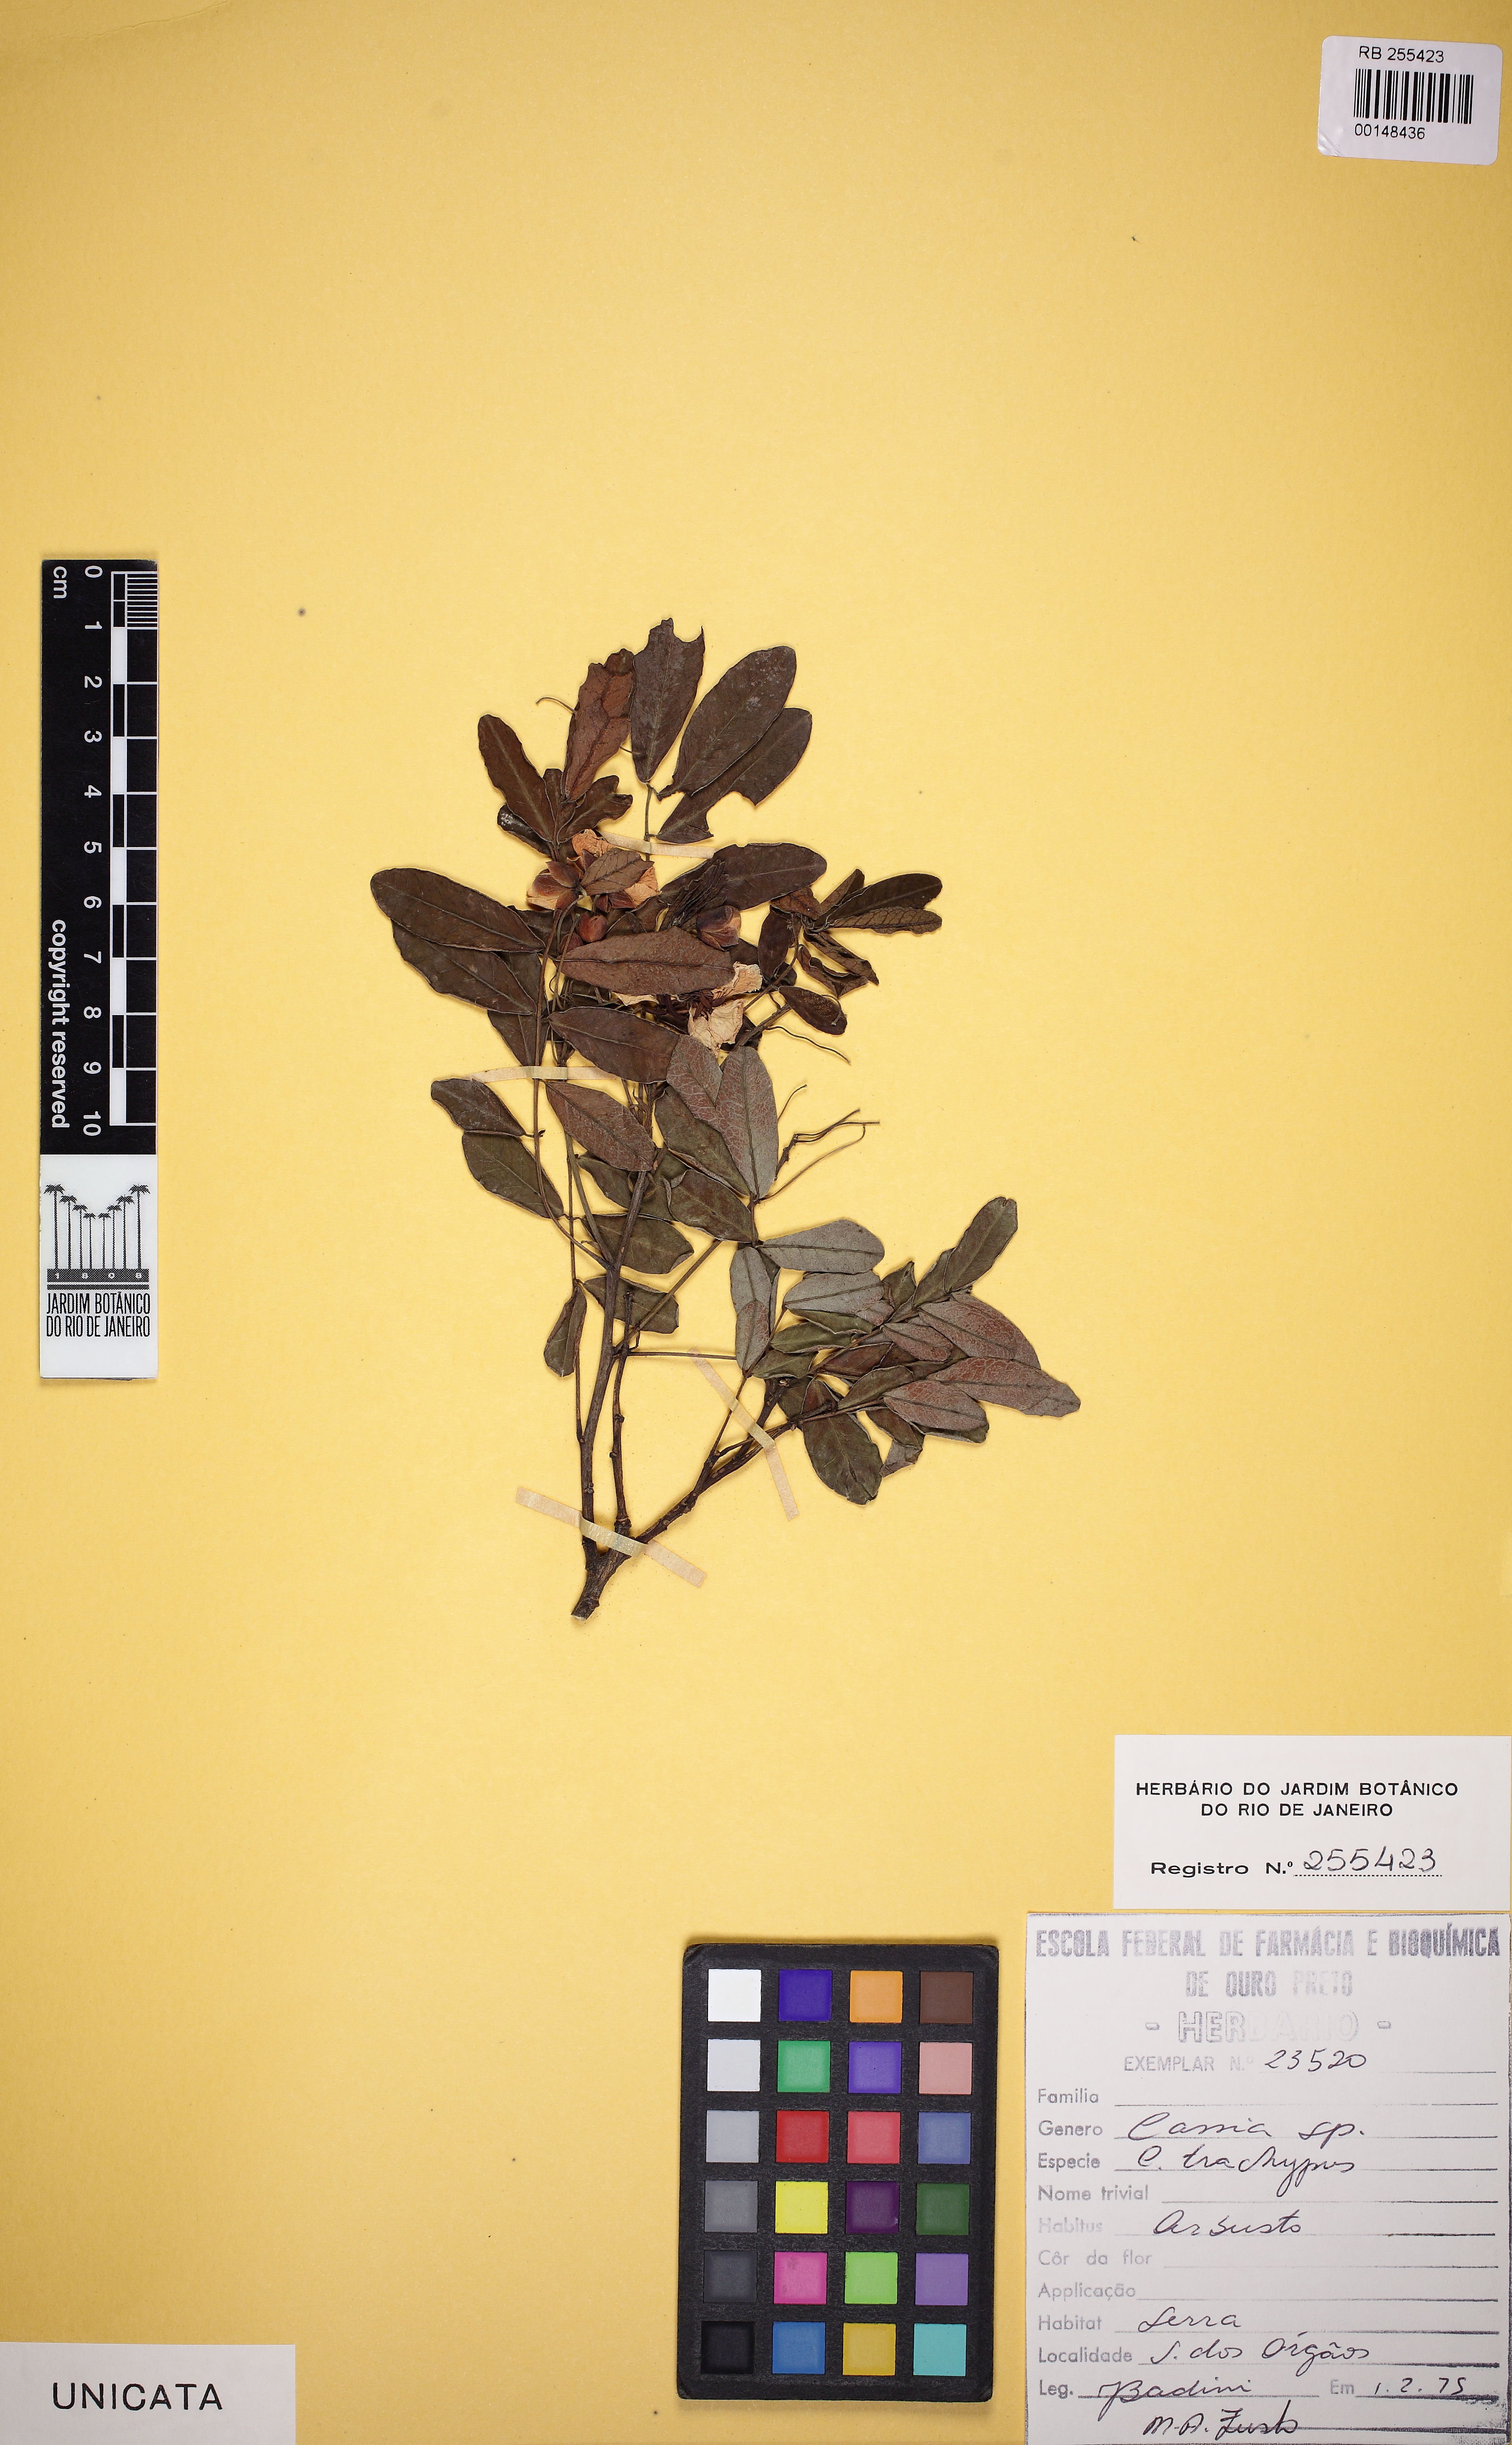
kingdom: Plantae
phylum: Tracheophyta
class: Magnoliopsida
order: Fabales
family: Fabaceae
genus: Senna
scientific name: Senna
